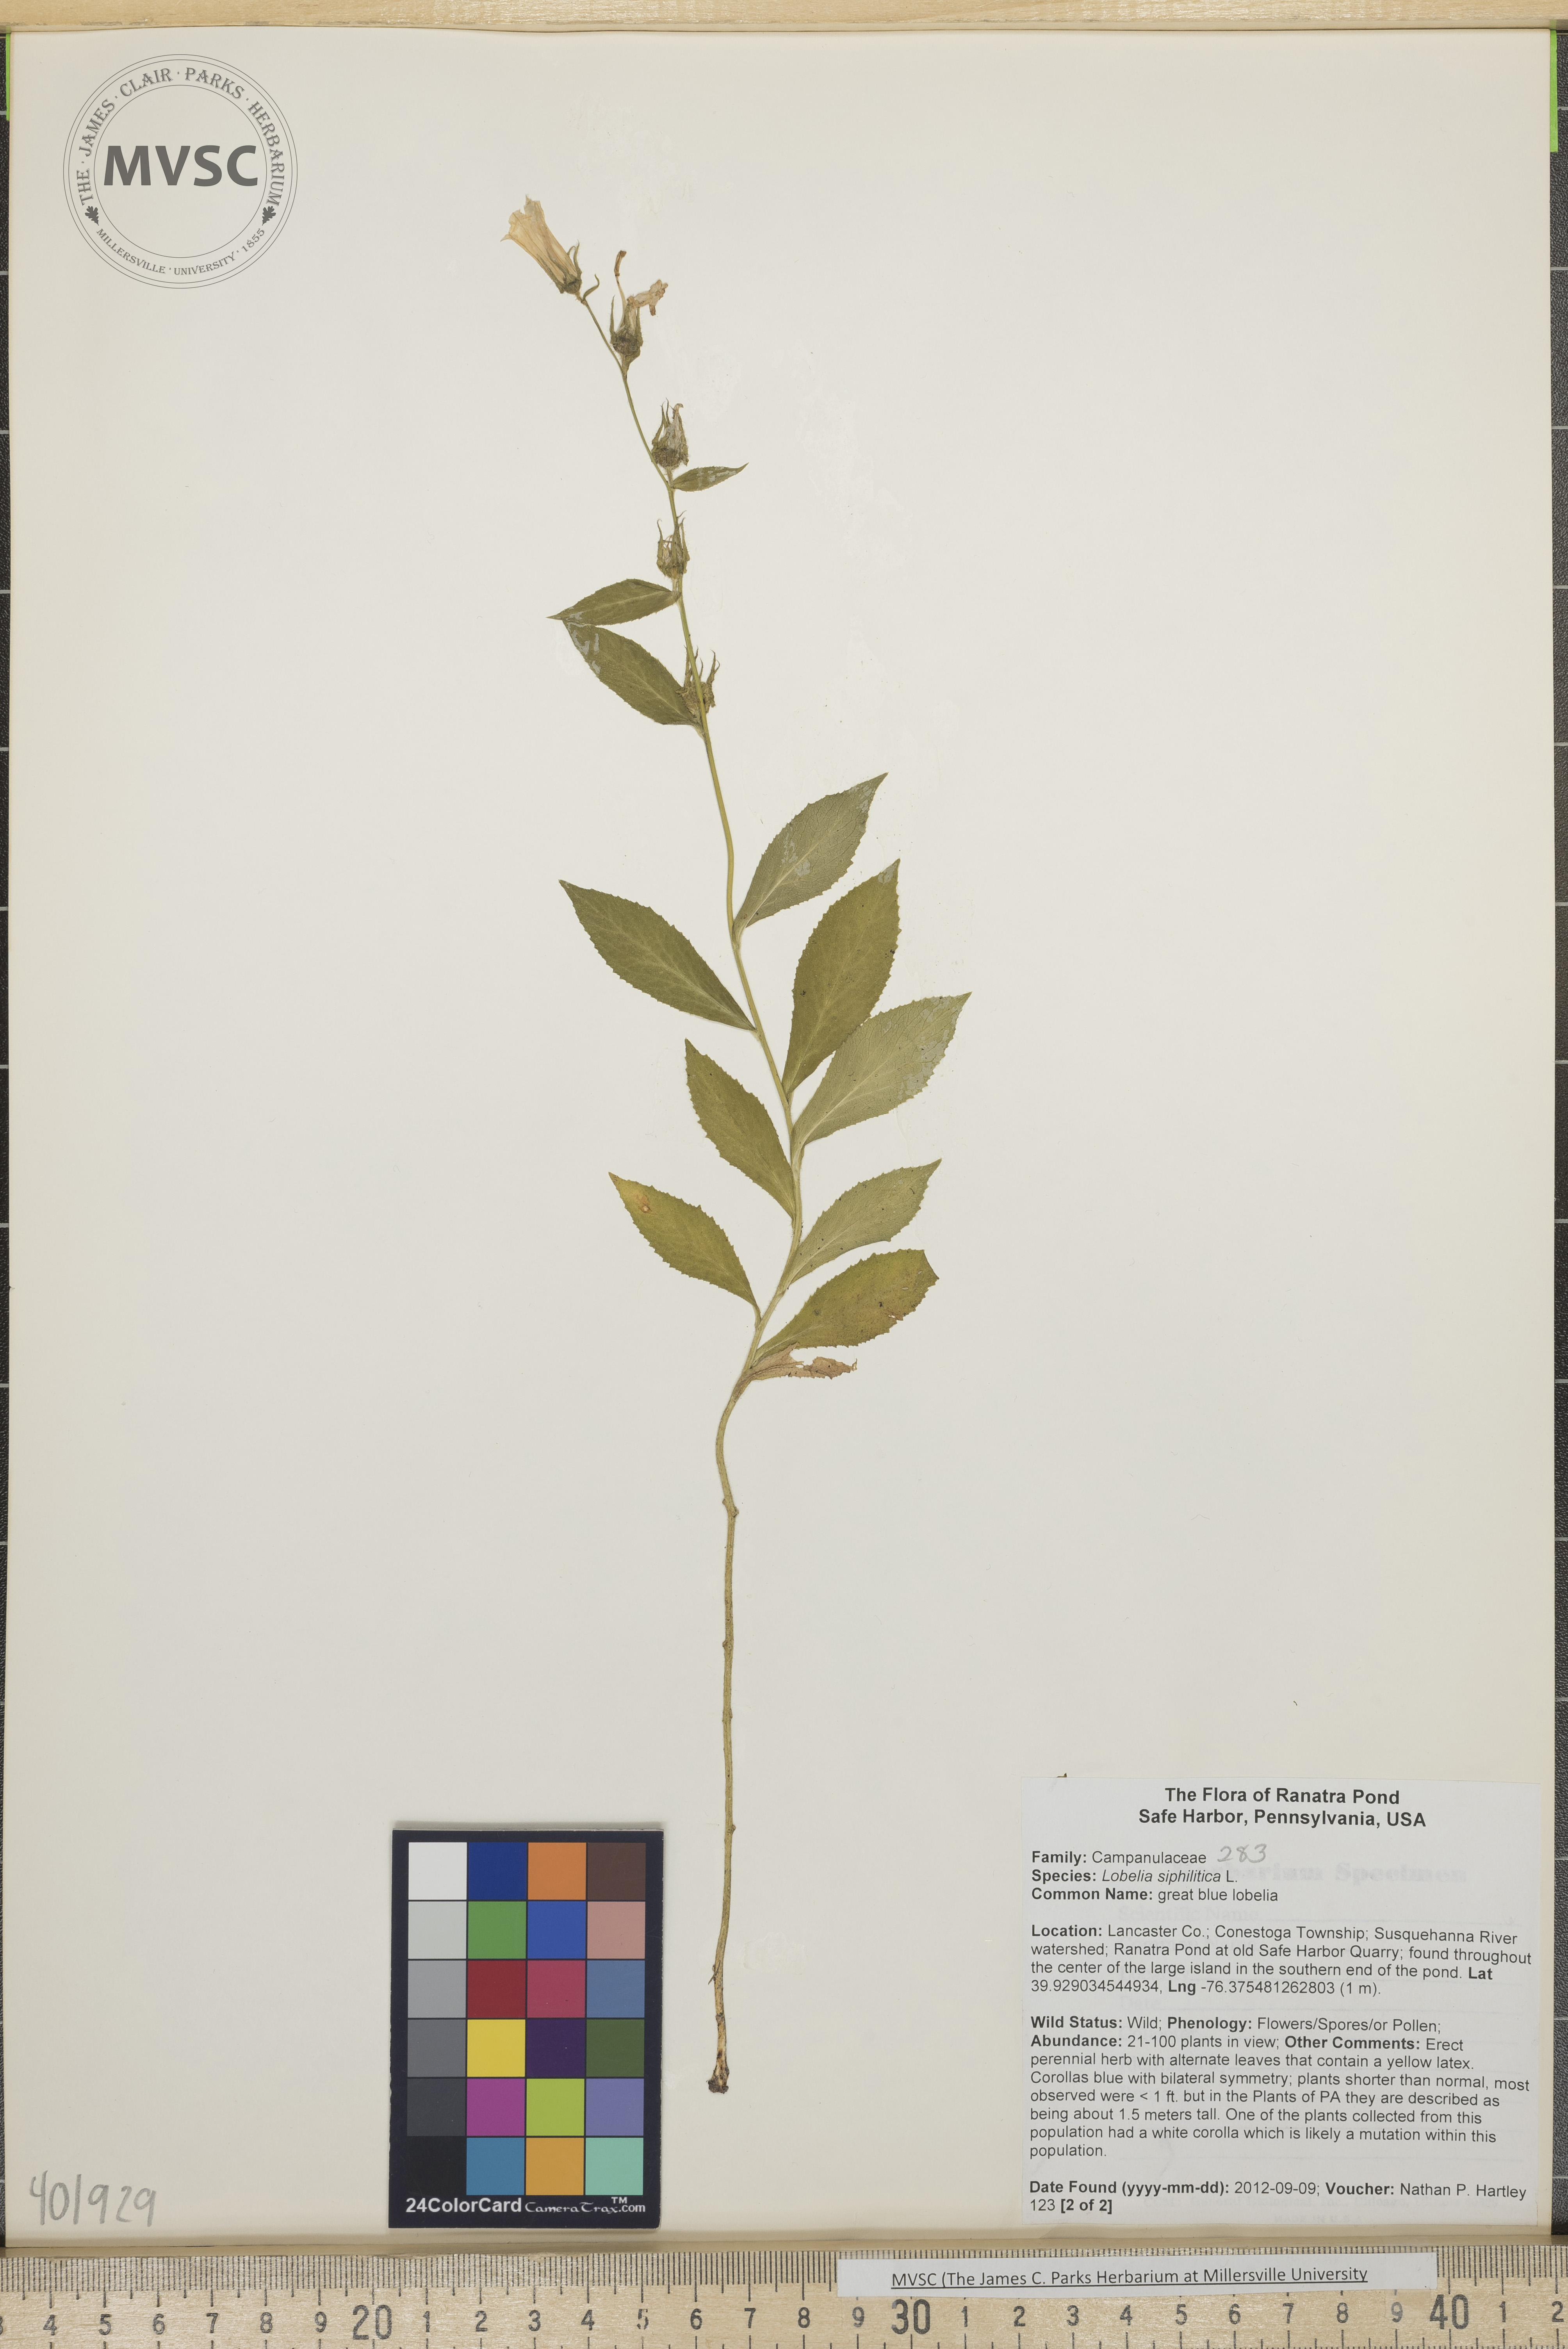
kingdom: Plantae
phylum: Tracheophyta
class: Magnoliopsida
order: Asterales
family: Campanulaceae
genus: Lobelia
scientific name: Lobelia siphilitica
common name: Great blue lobelia
